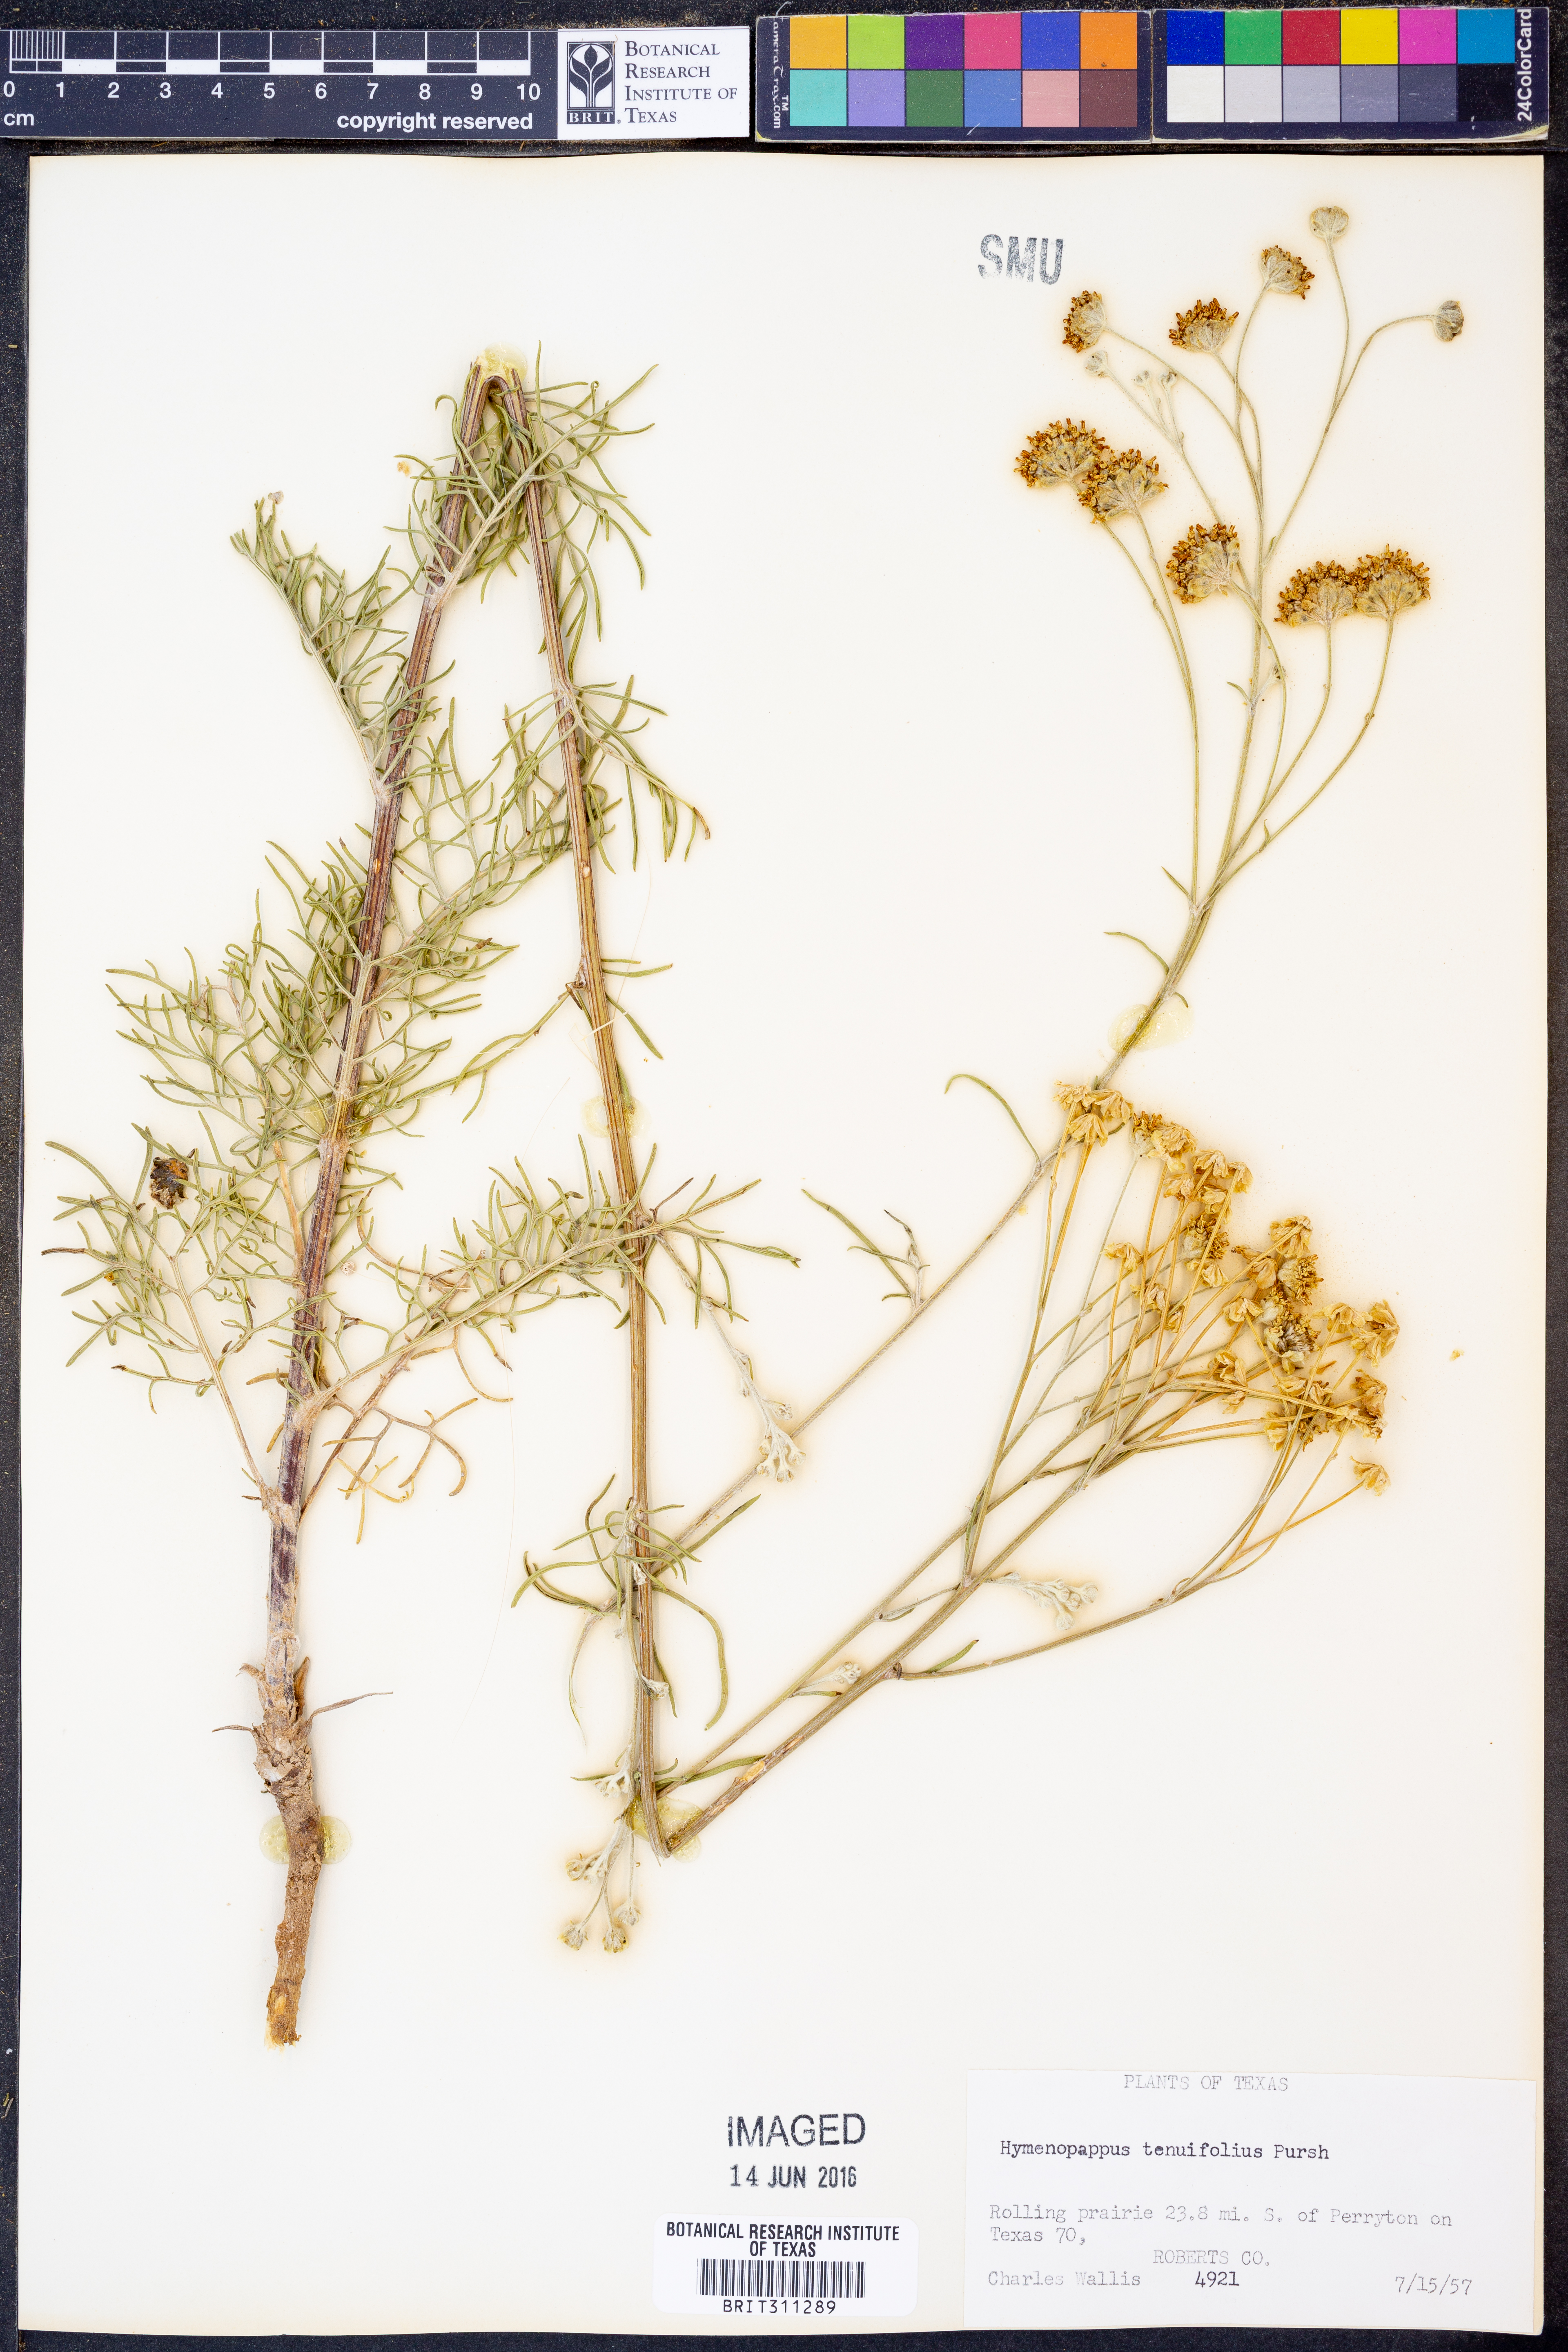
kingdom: Plantae
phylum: Tracheophyta
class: Magnoliopsida
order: Asterales
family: Asteraceae
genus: Hymenopappus
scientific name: Hymenopappus tenuifolius
